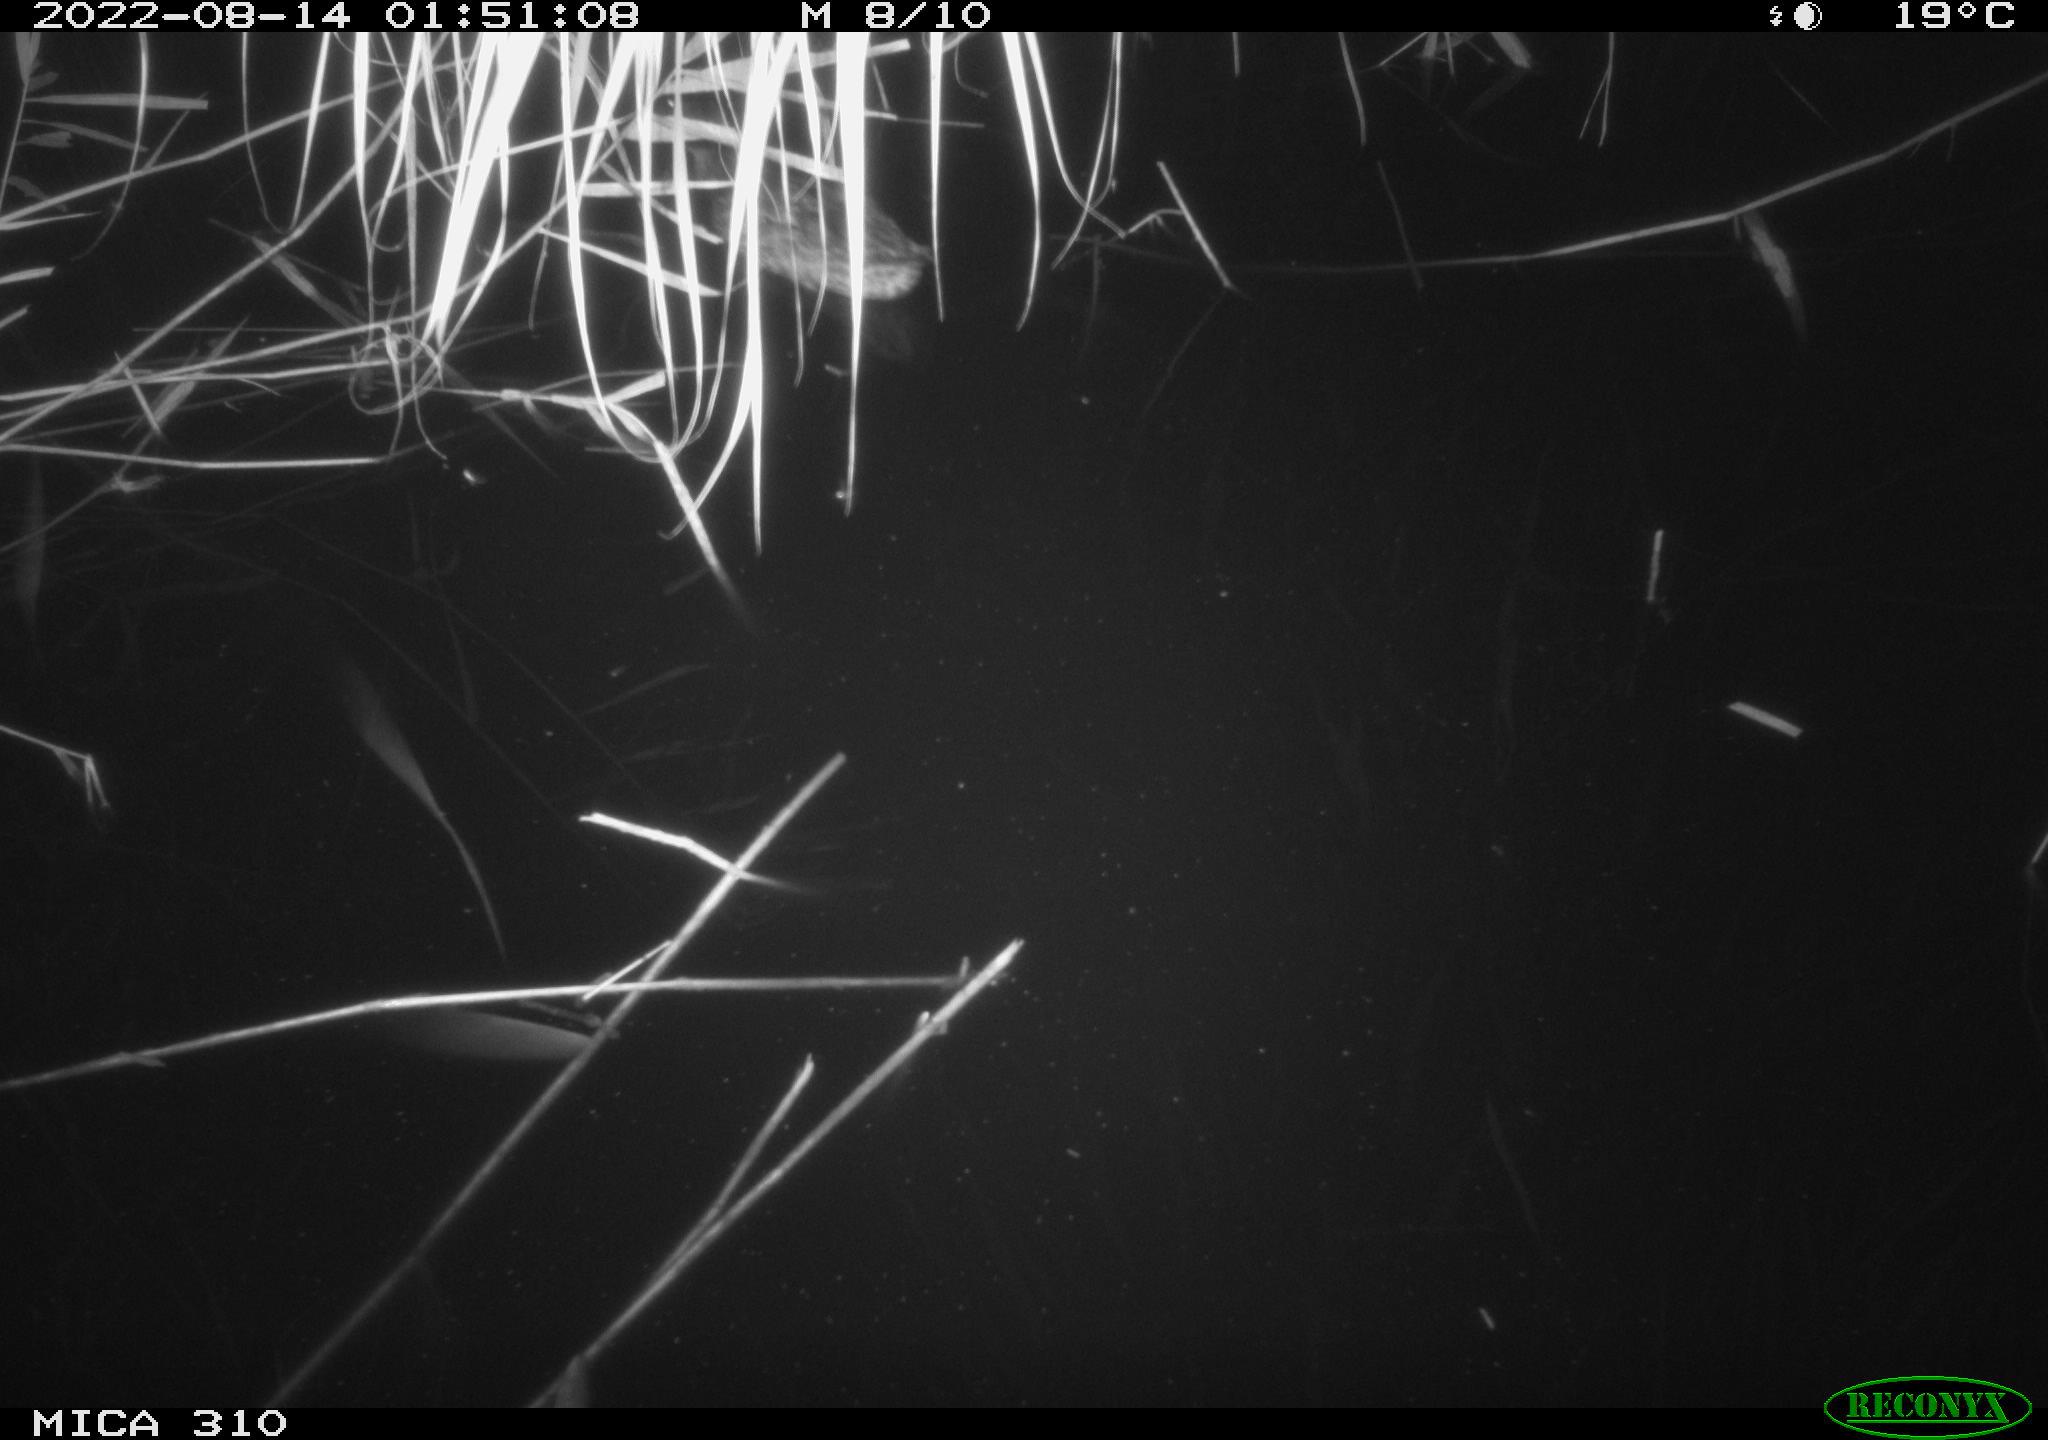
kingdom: Animalia
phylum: Chordata
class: Aves
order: Anseriformes
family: Anatidae
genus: Anas
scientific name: Anas platyrhynchos
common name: Mallard
